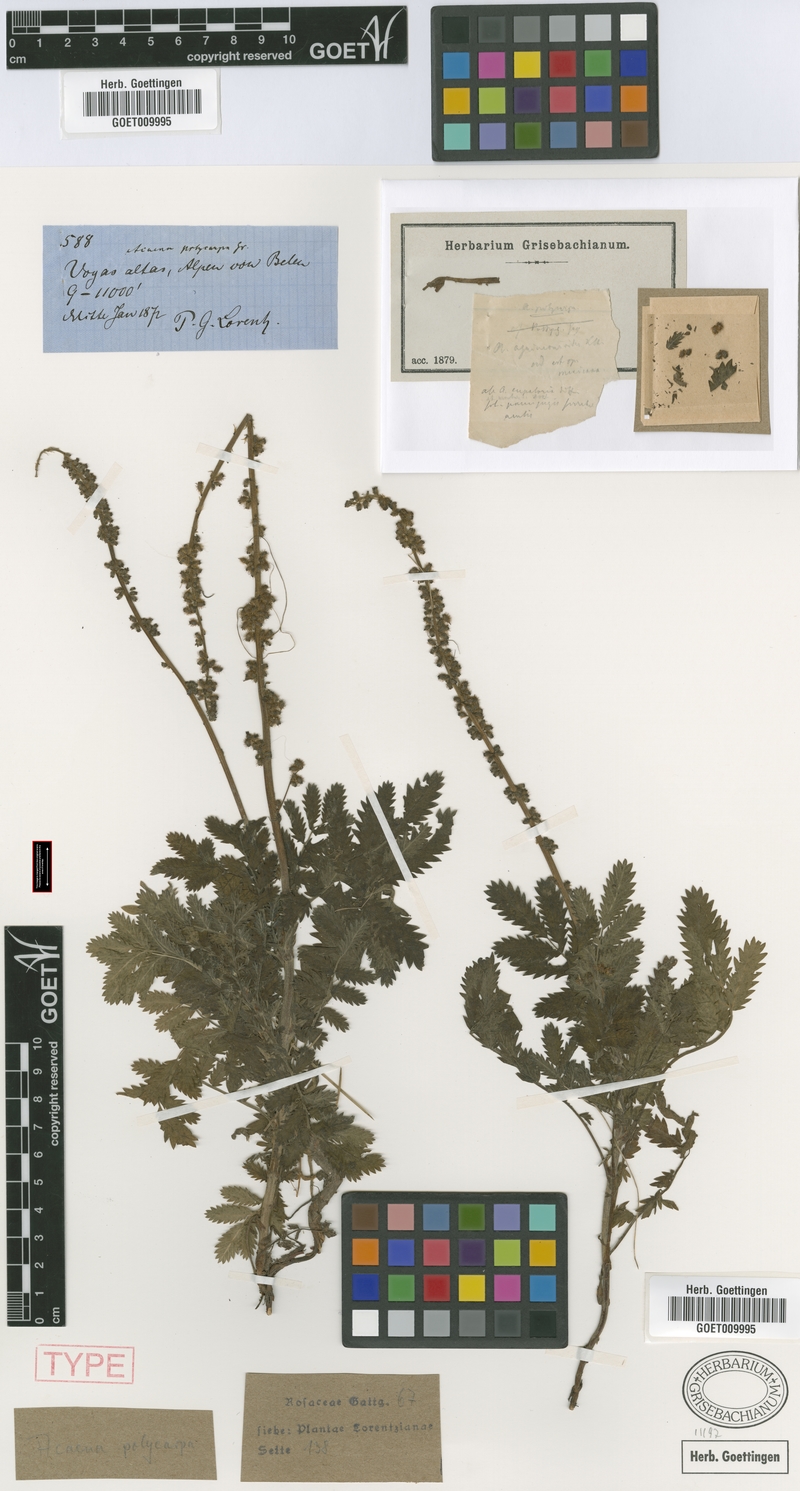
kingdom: Plantae
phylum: Tracheophyta
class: Magnoliopsida
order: Rosales
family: Rosaceae
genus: Acaena
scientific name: Acaena stricta
